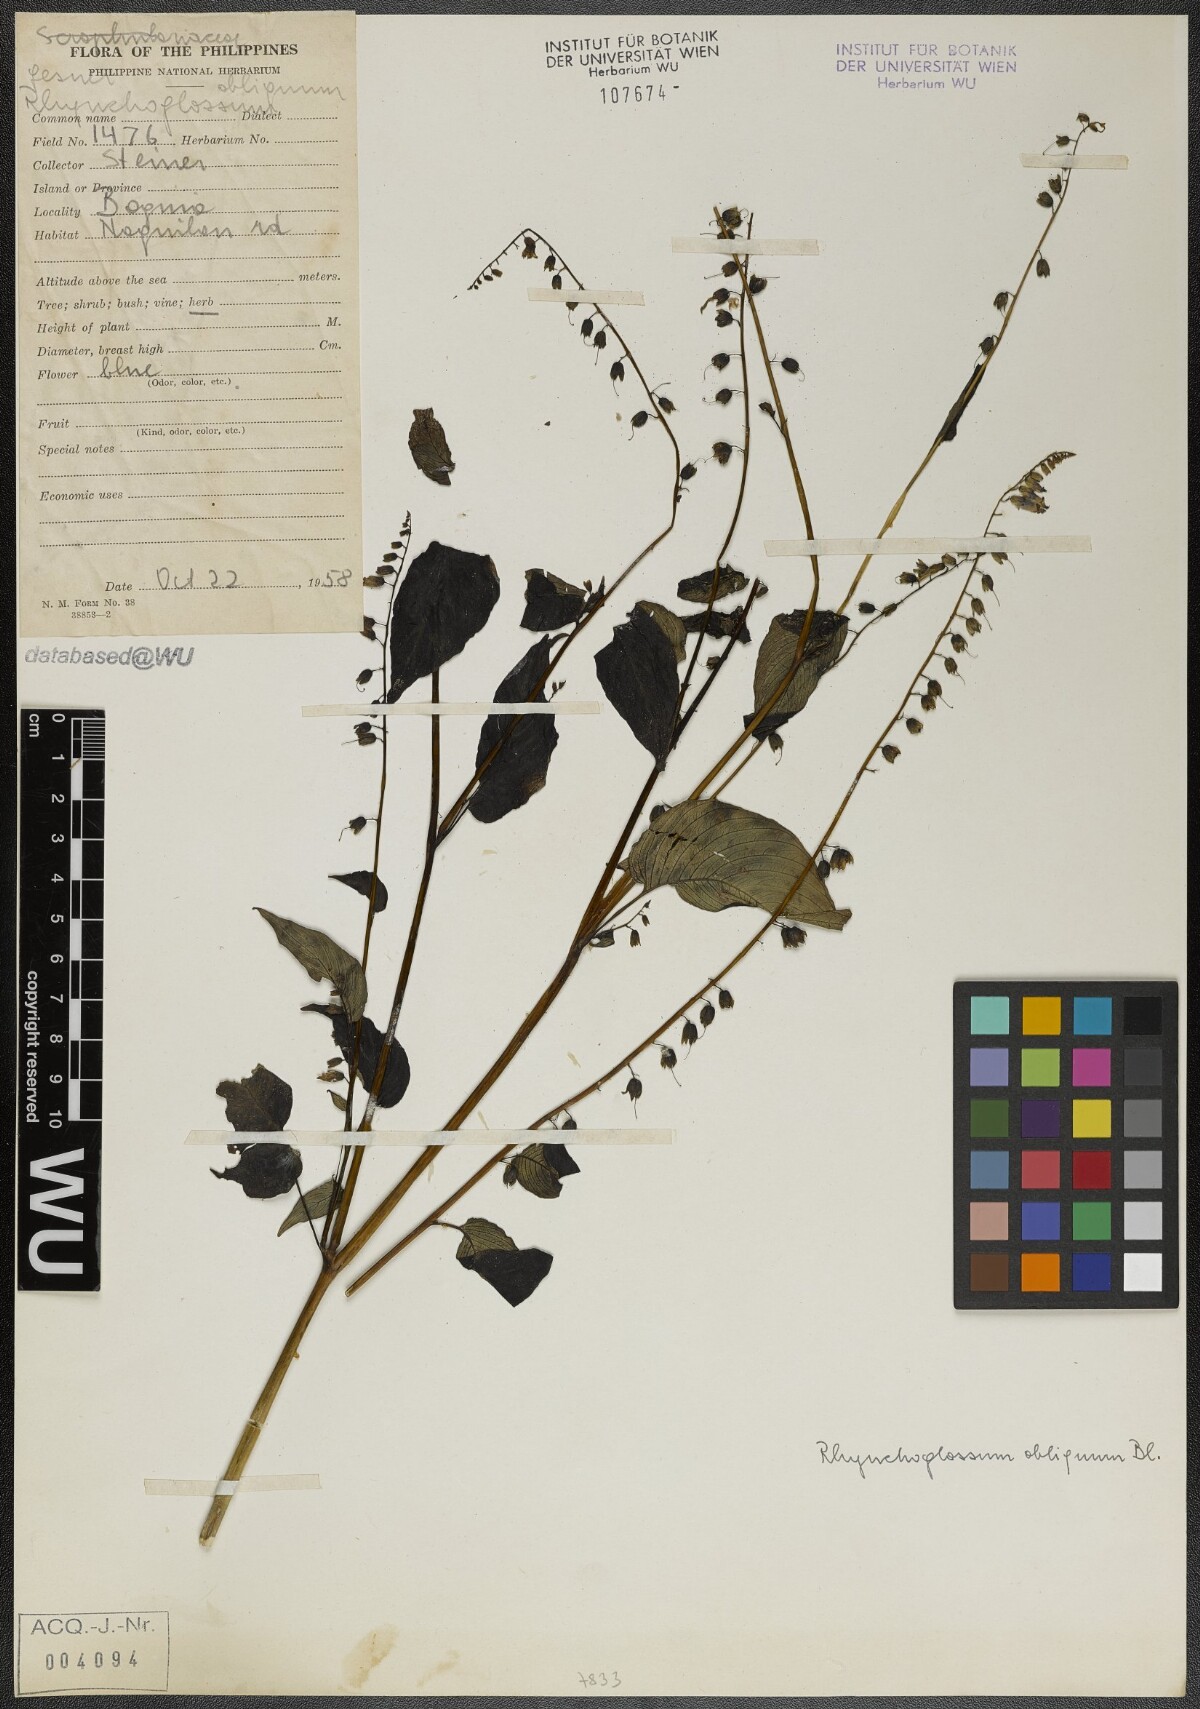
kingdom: Plantae
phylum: Tracheophyta
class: Magnoliopsida
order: Lamiales
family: Gesneriaceae
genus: Rhynchoglossum
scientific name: Rhynchoglossum obliquum
